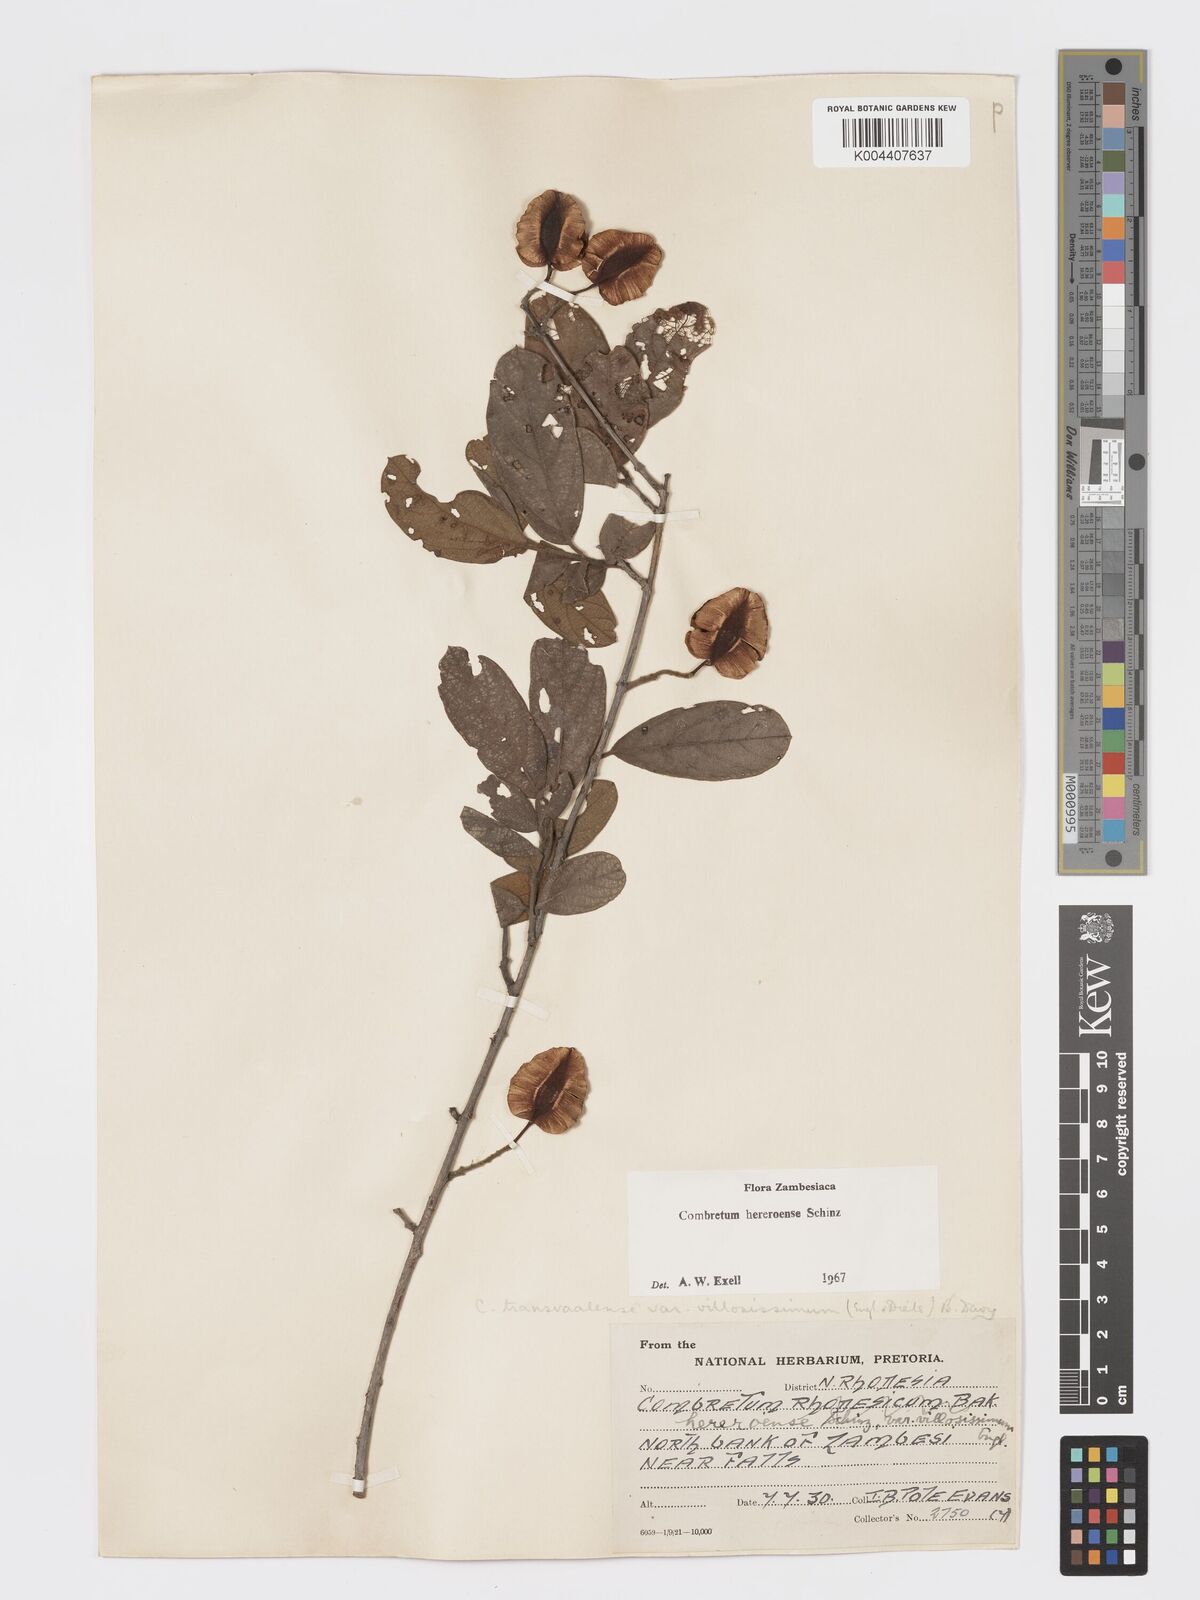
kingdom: Plantae
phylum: Tracheophyta
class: Magnoliopsida
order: Myrtales
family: Combretaceae
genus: Combretum
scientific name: Combretum hereroense
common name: Russet bushwillow
